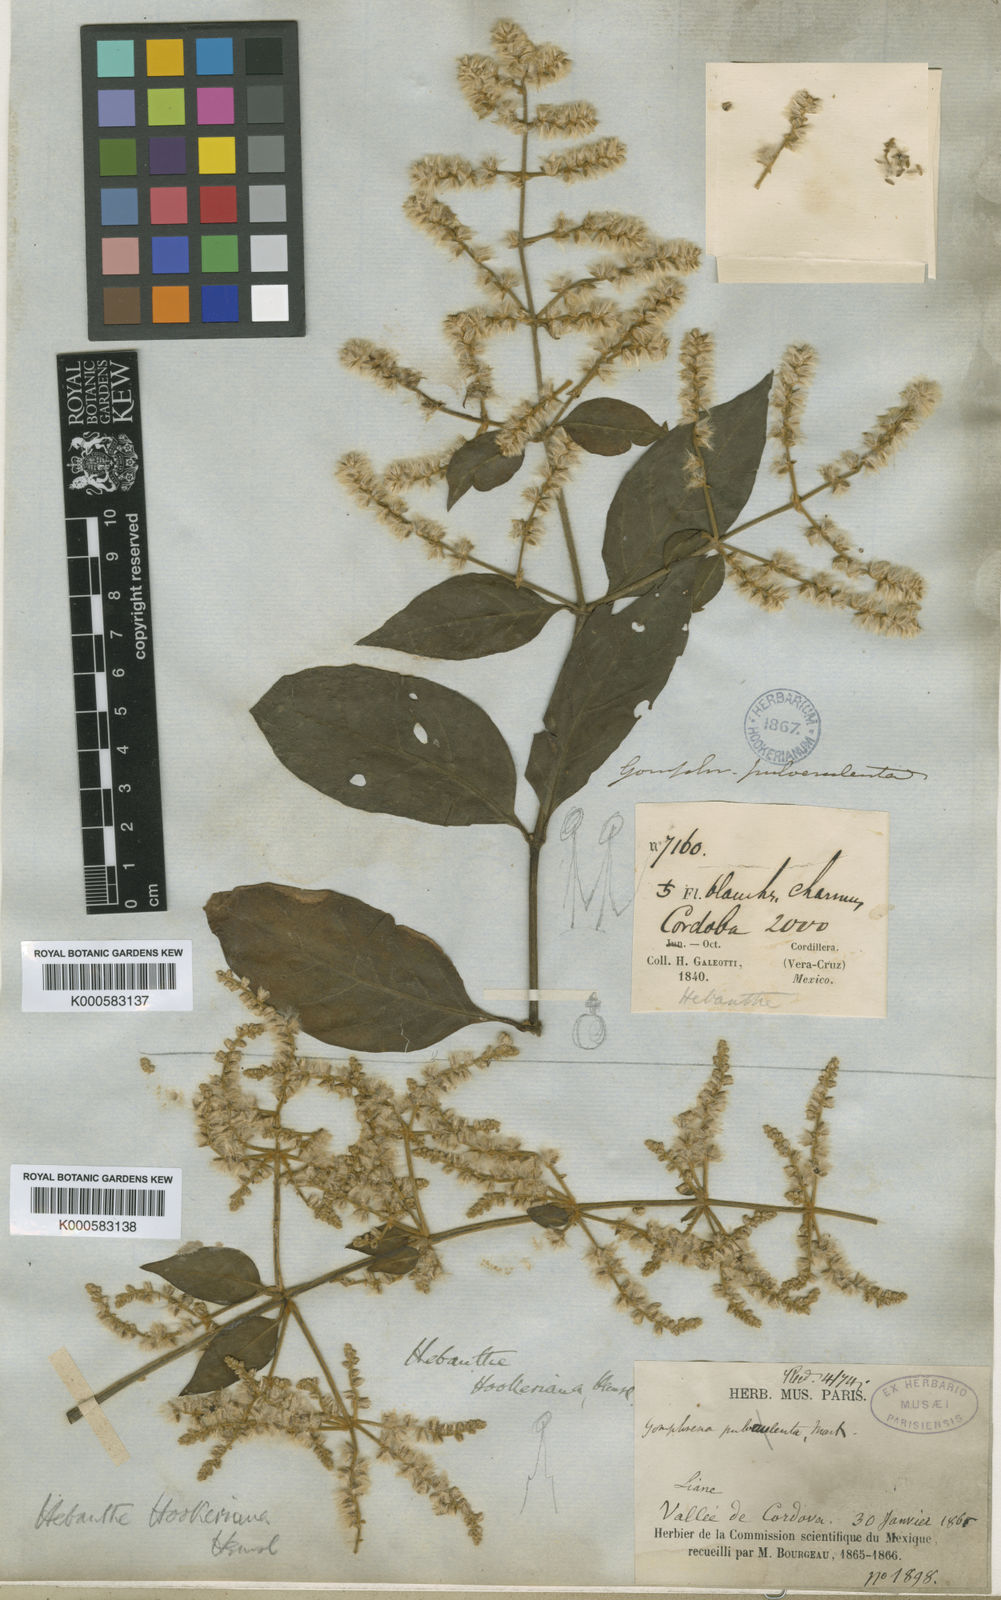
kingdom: Plantae
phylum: Tracheophyta
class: Magnoliopsida
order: Caryophyllales
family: Amaranthaceae
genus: Hebanthe
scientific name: Hebanthe grandiflora
